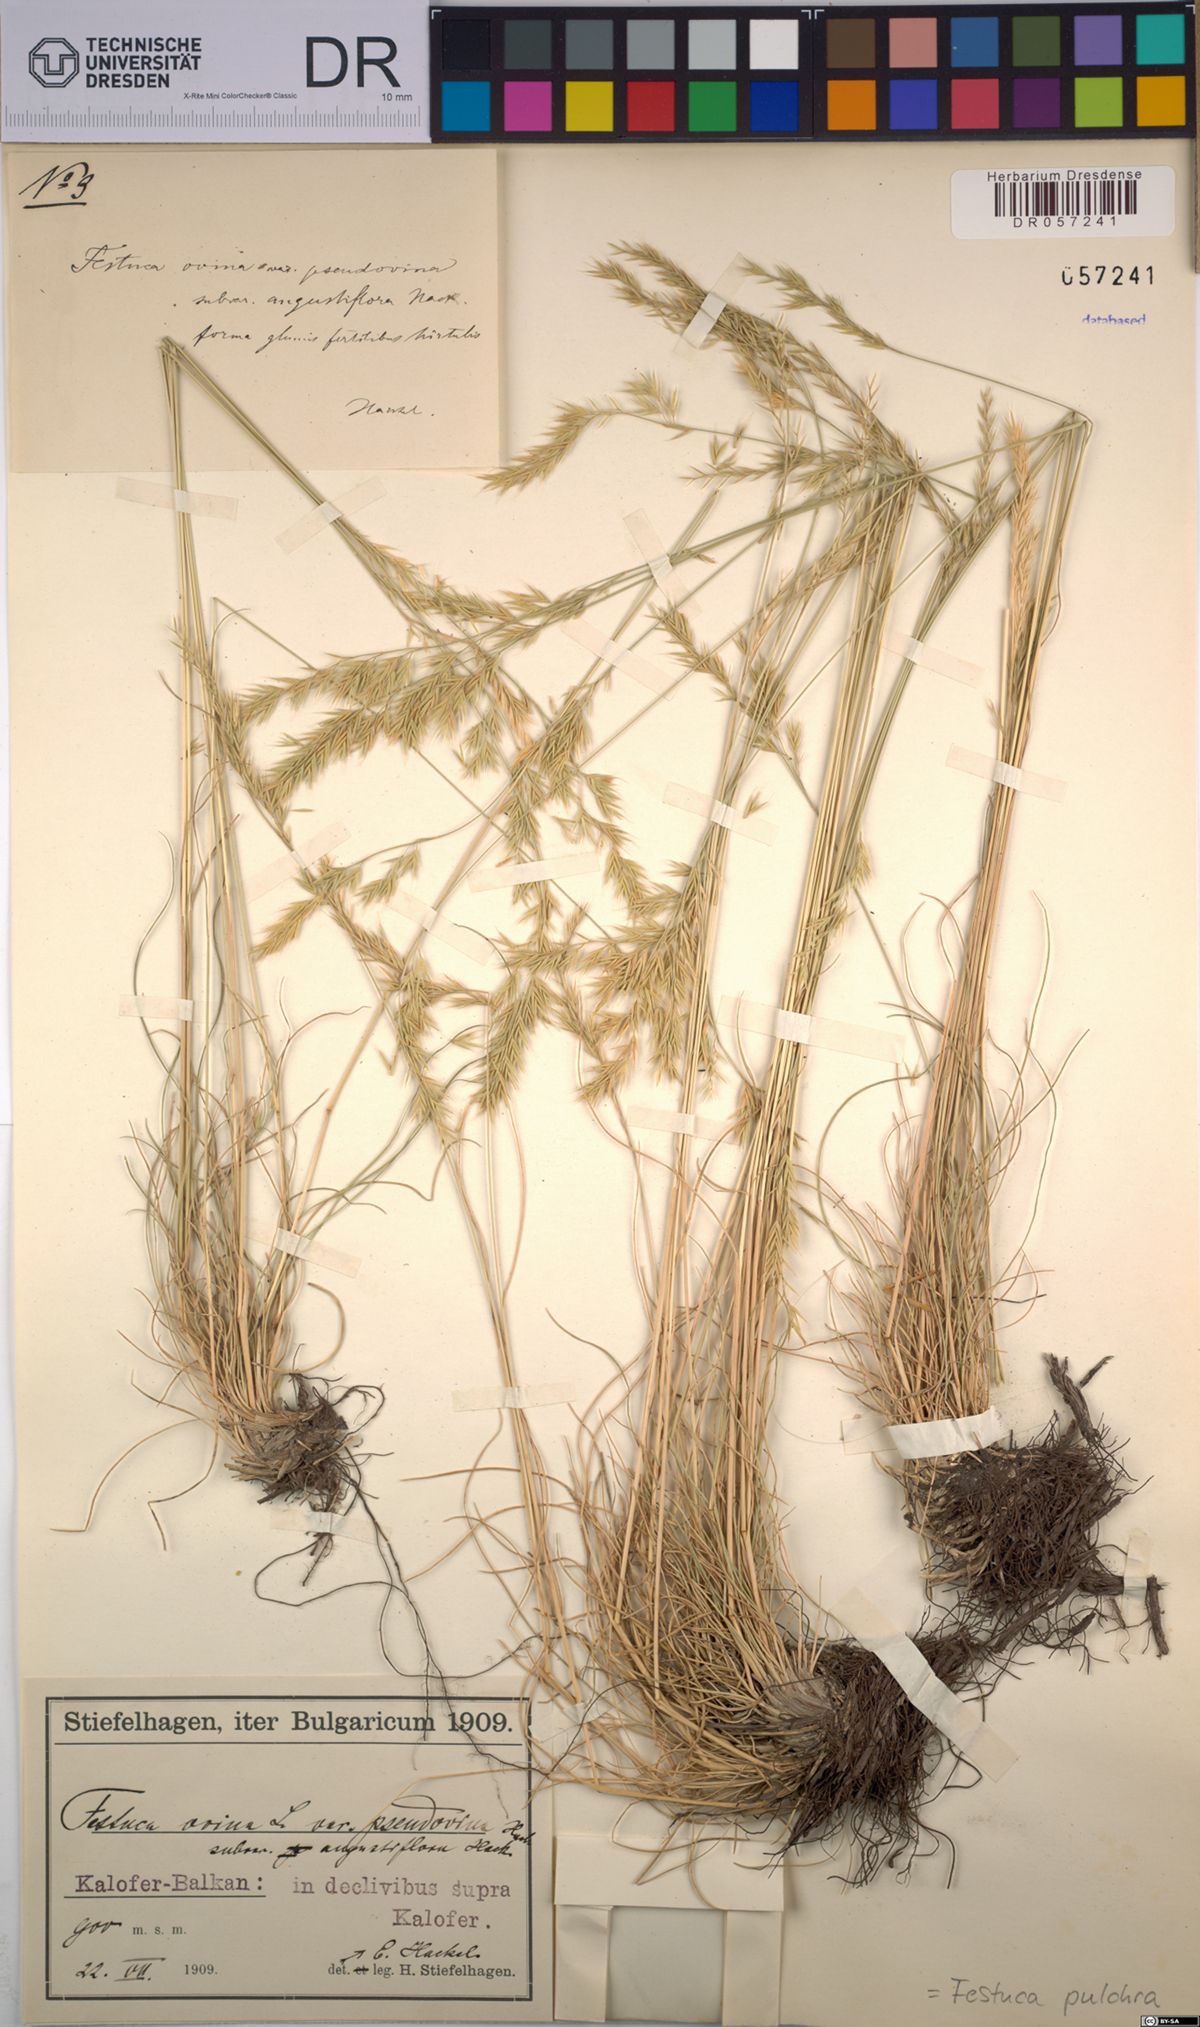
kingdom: Plantae
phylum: Tracheophyta
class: Liliopsida
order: Poales
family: Poaceae
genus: Festuca
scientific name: Festuca pulchra
